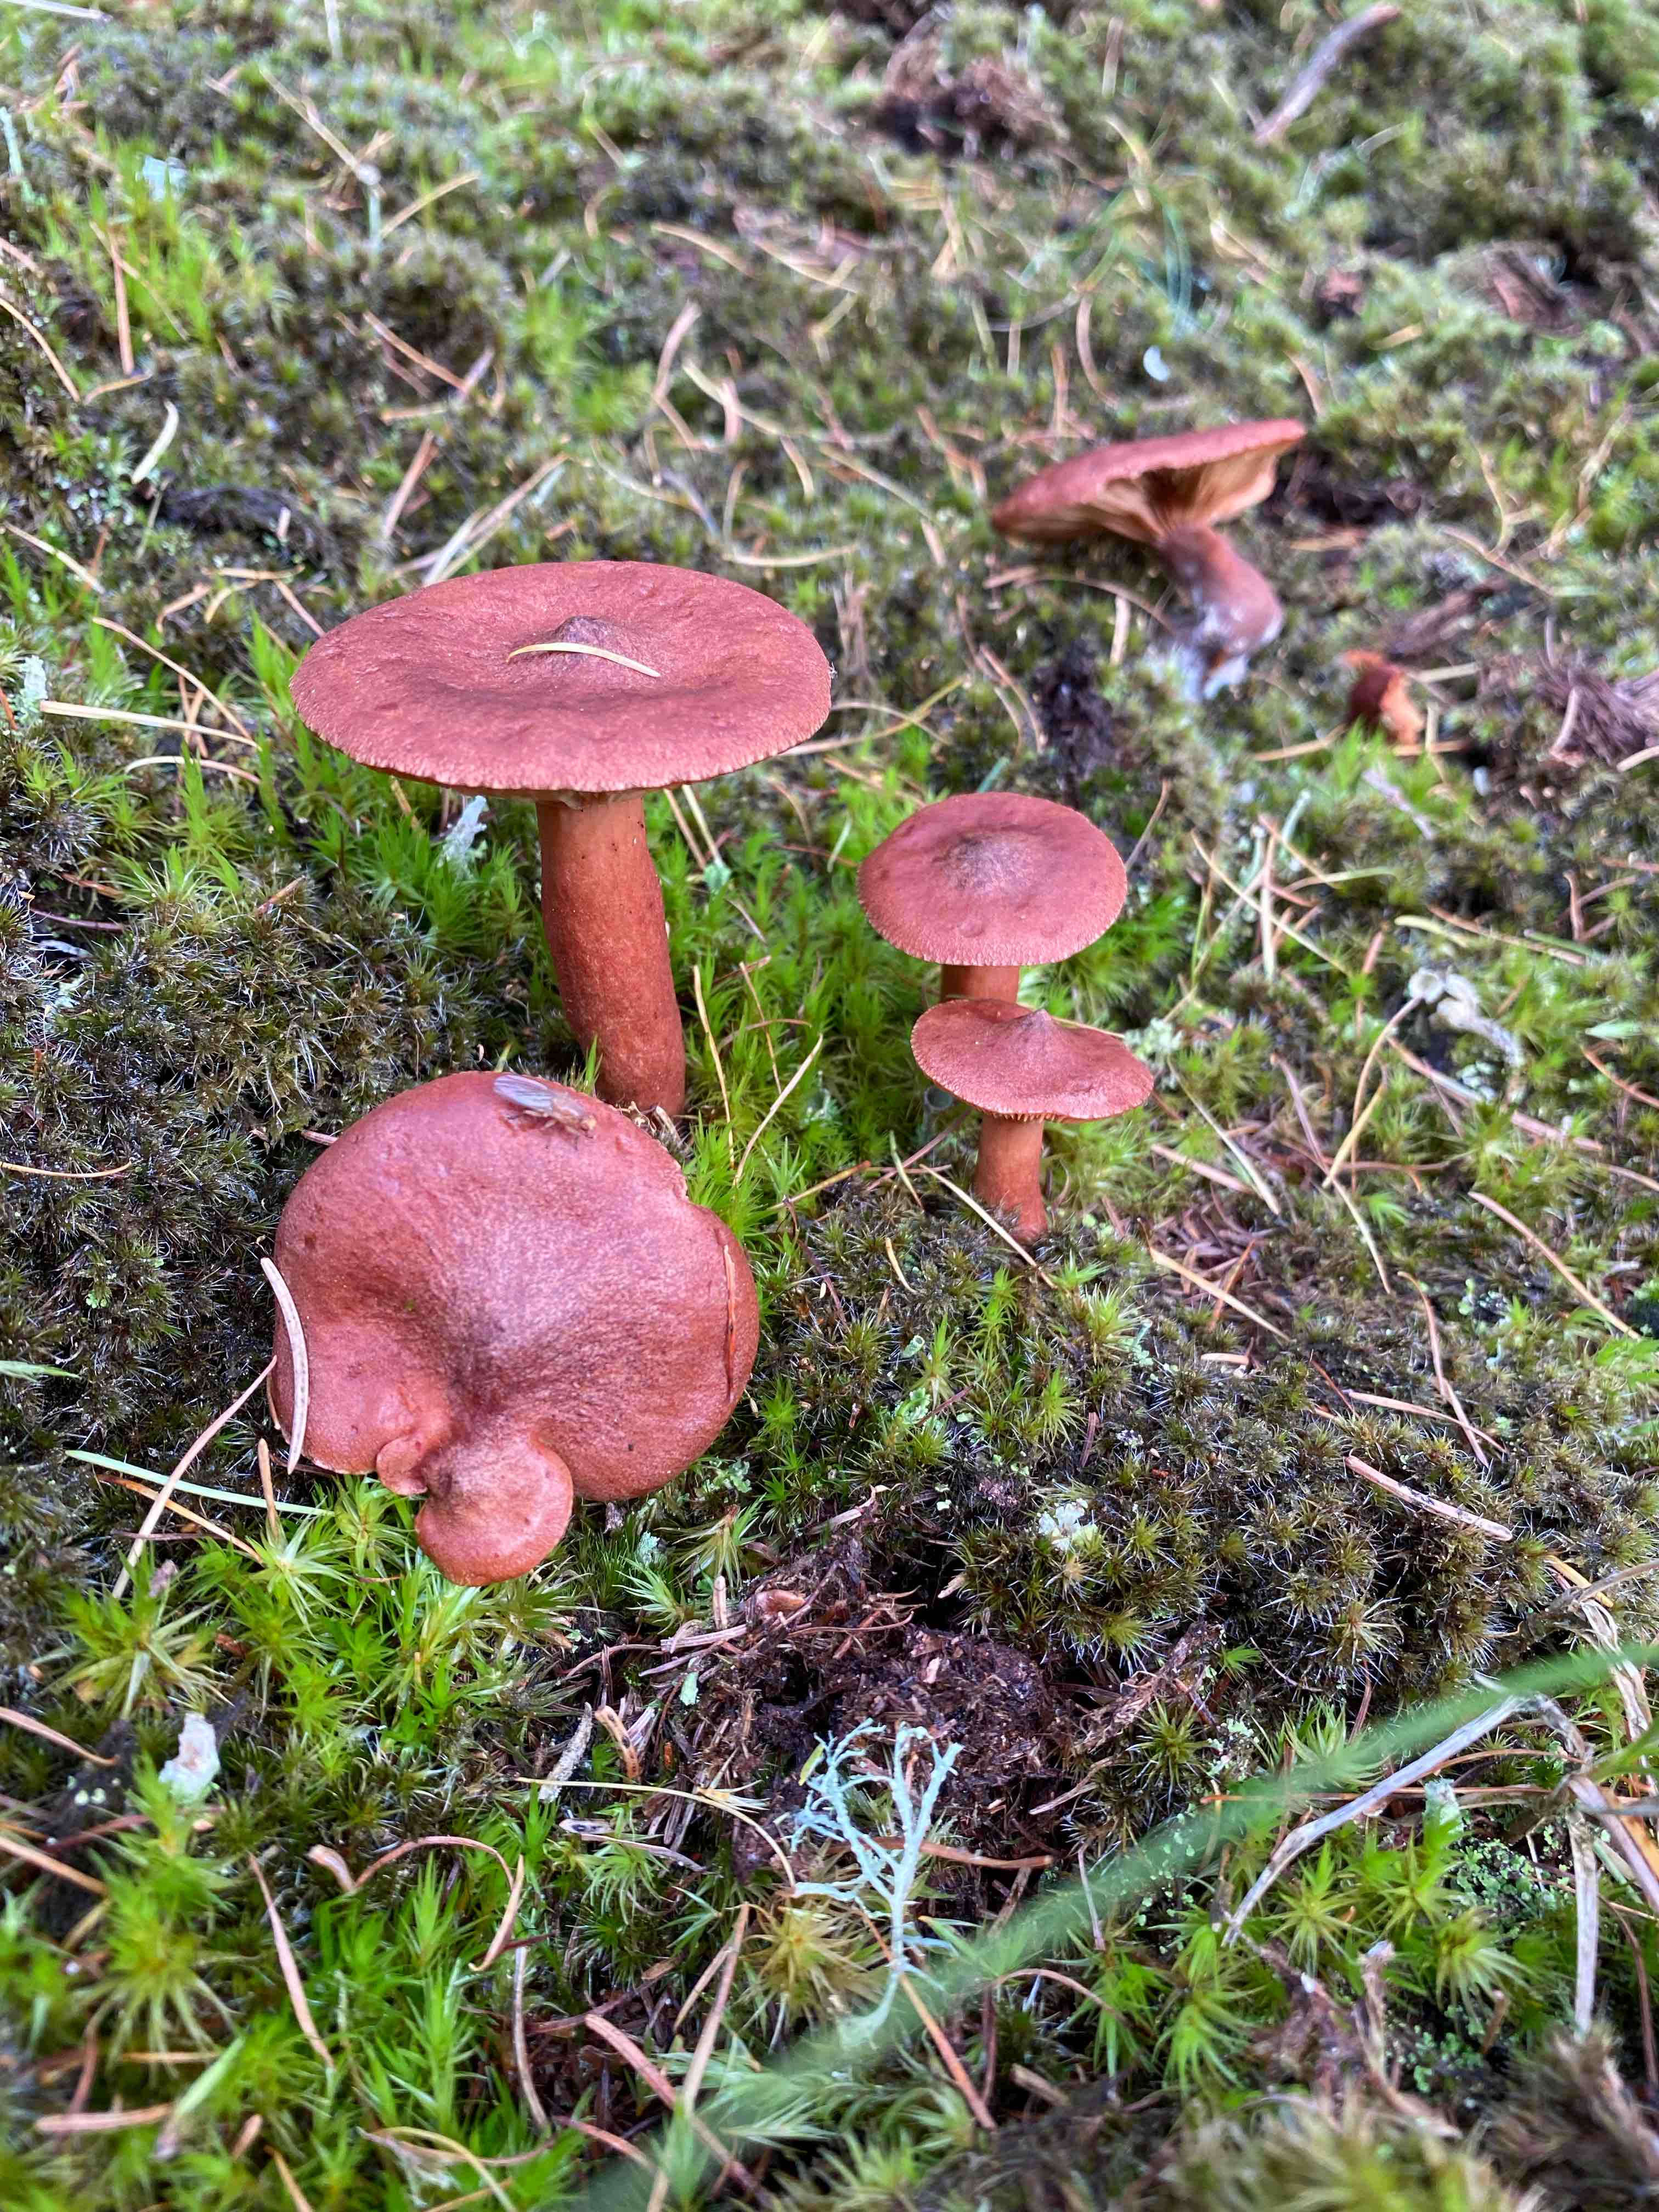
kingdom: Fungi
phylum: Basidiomycota
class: Agaricomycetes
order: Russulales
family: Russulaceae
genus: Lactarius
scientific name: Lactarius rufus
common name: rødbrun mælkehat
